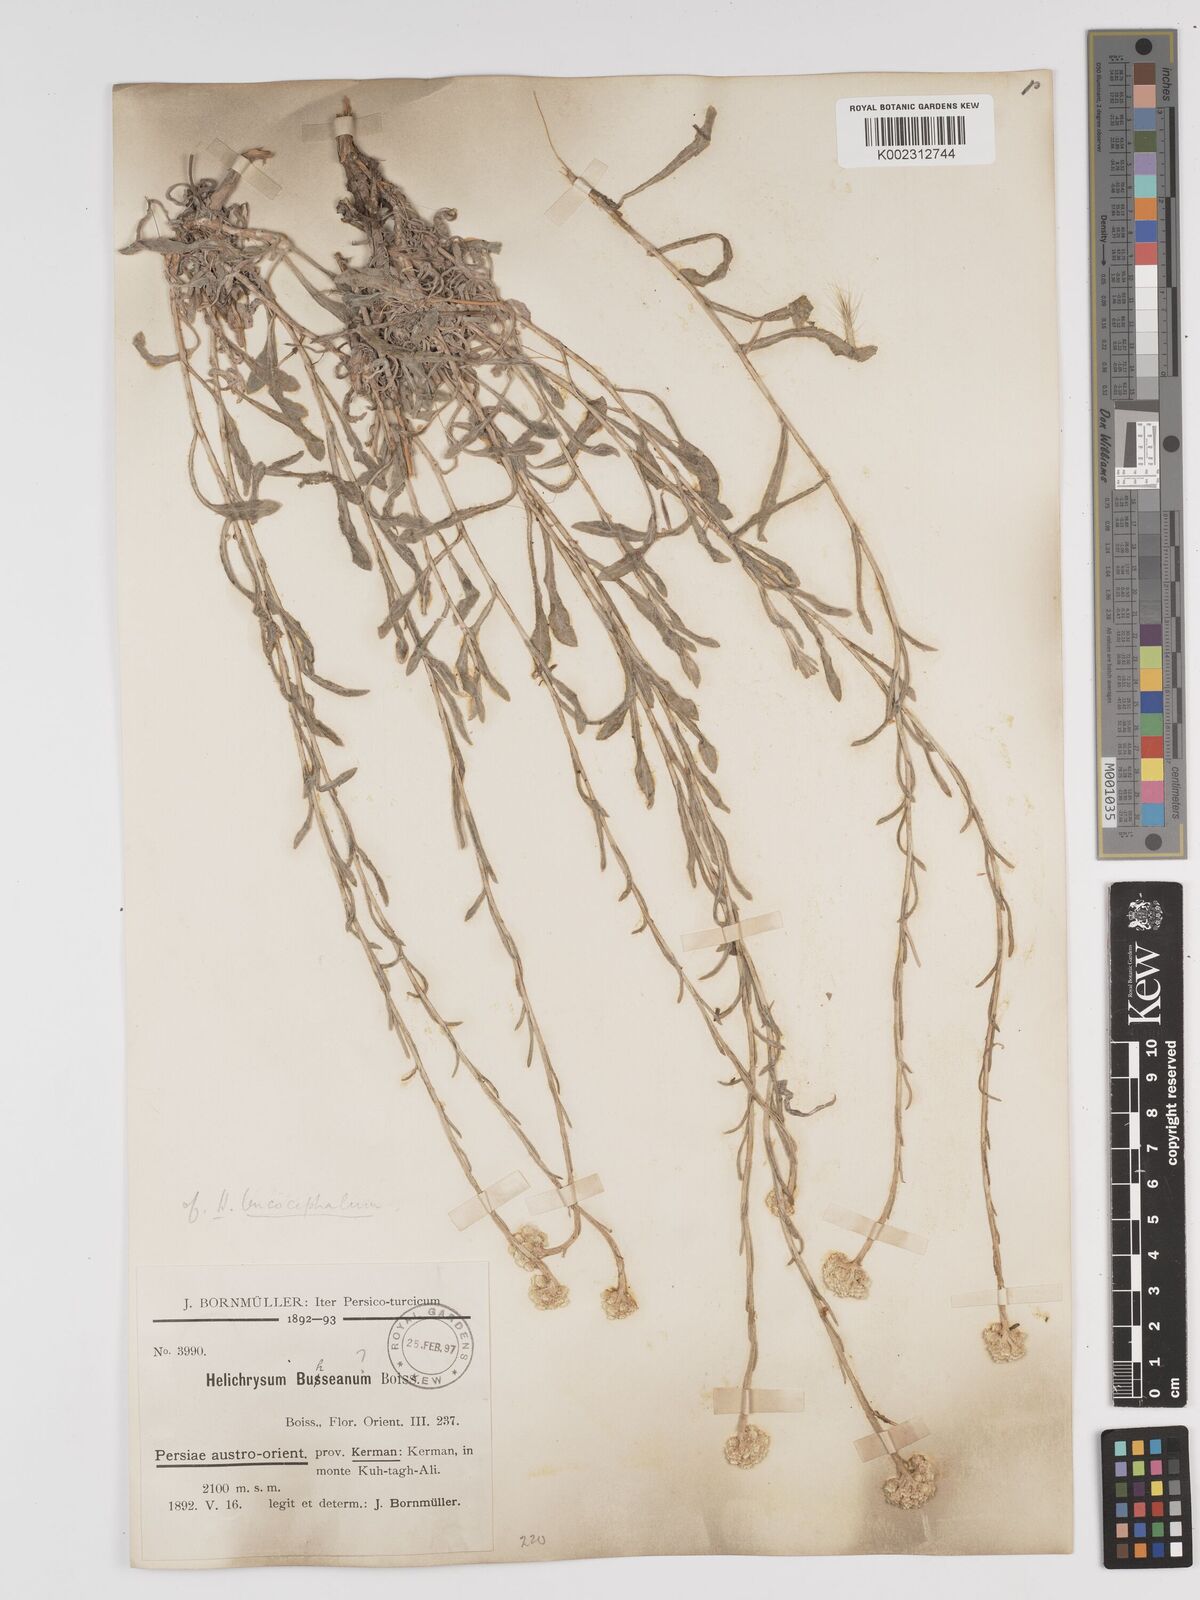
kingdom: Plantae
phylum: Tracheophyta
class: Magnoliopsida
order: Asterales
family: Asteraceae
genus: Helichrysum
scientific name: Helichrysum leucocephalum
